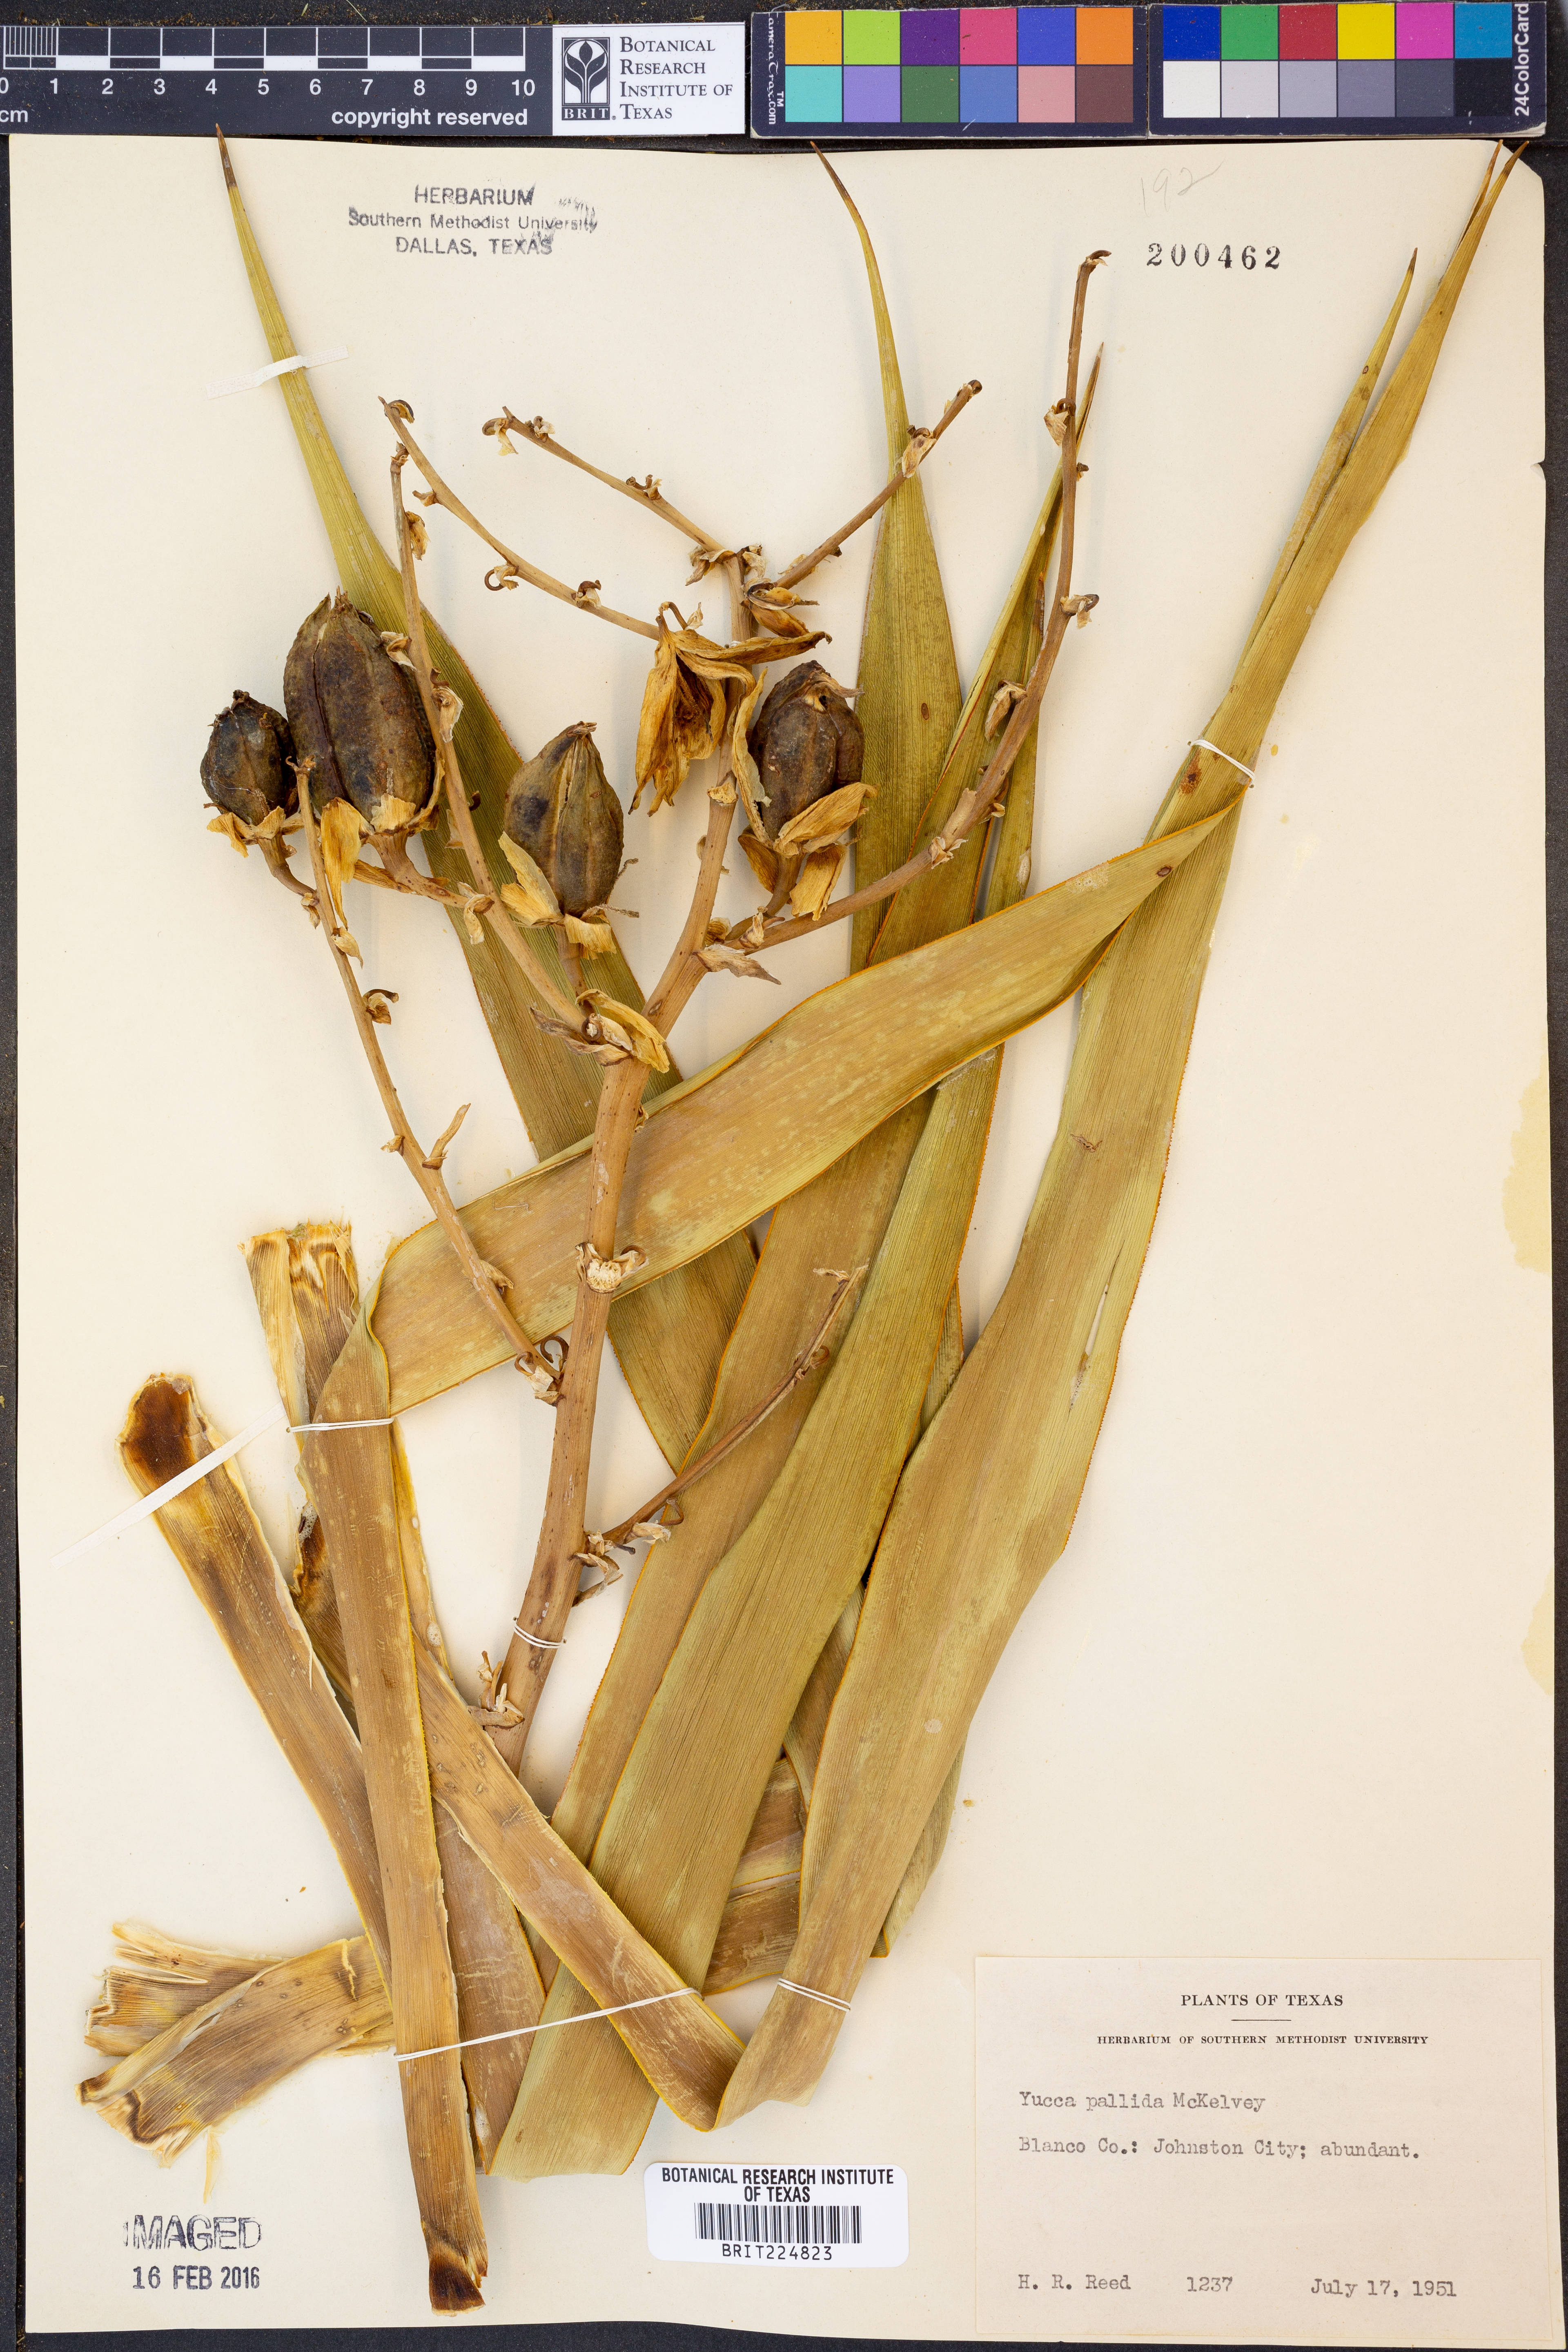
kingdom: Plantae
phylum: Tracheophyta
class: Liliopsida
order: Asparagales
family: Asparagaceae
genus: Yucca
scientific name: Yucca pallida
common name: Pale leaf yucca
